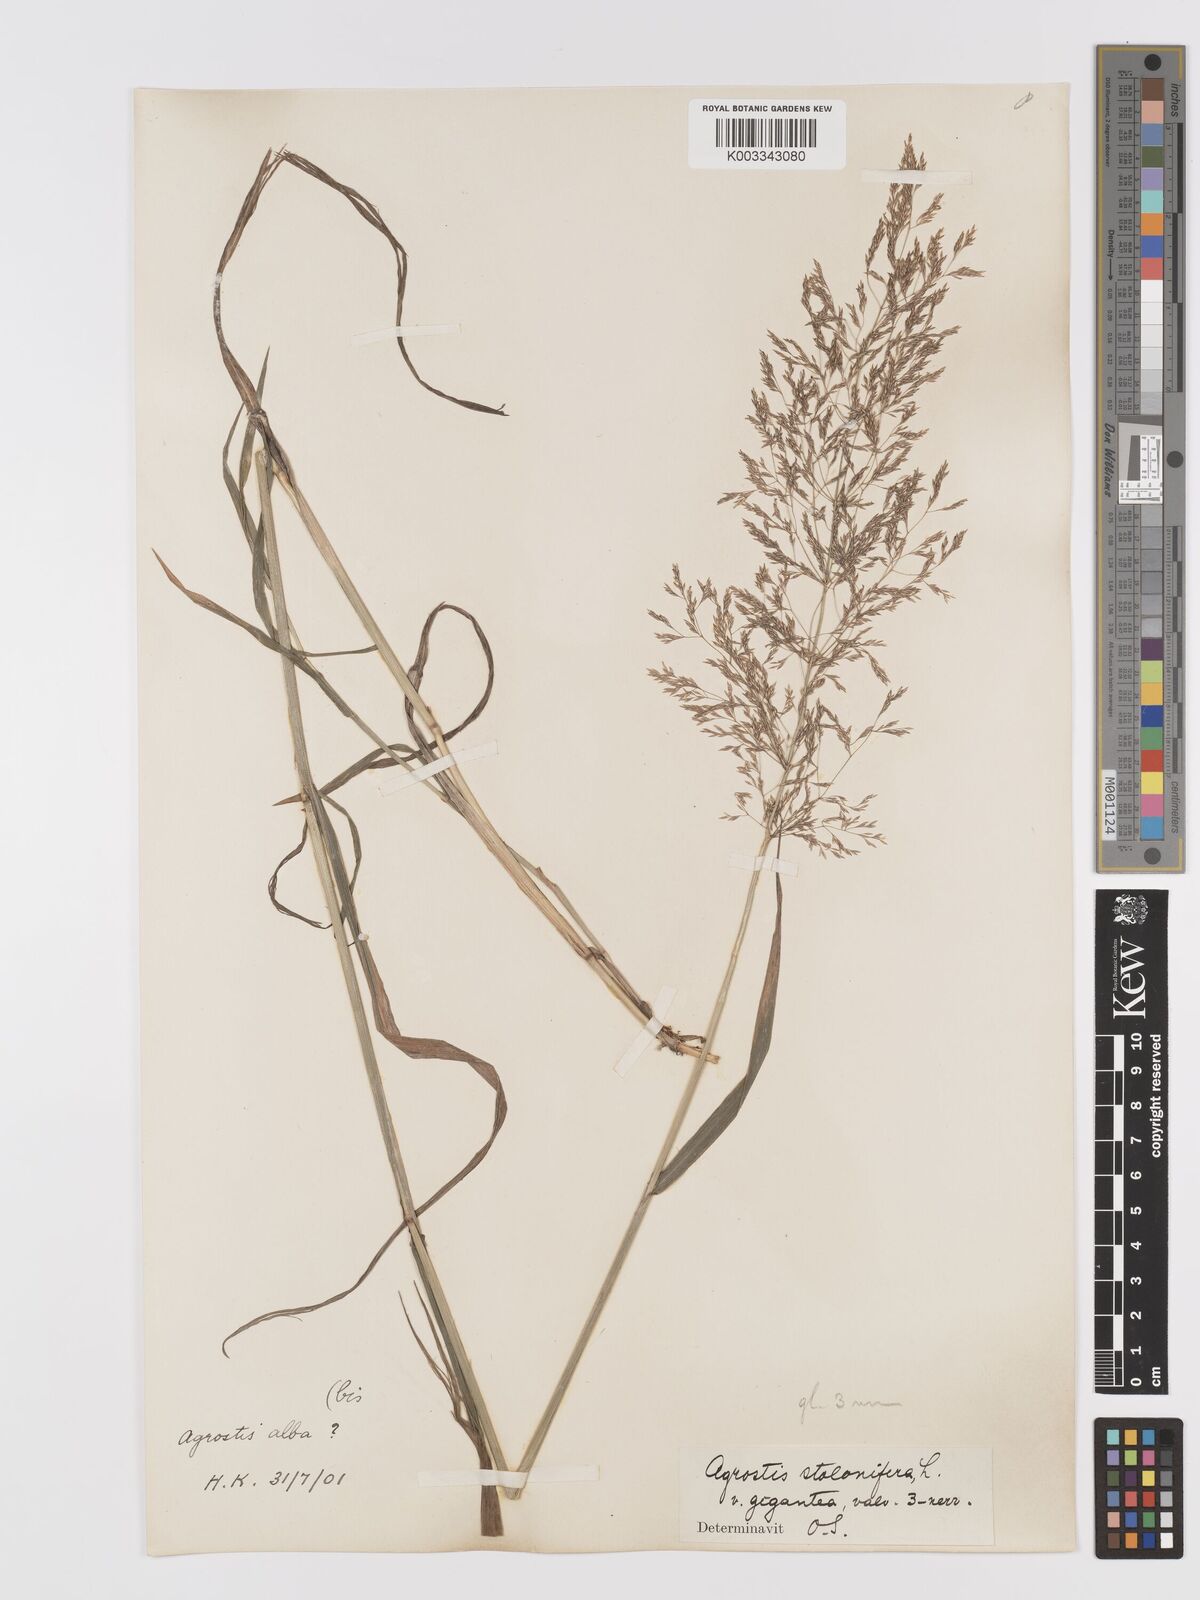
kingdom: Plantae
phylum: Tracheophyta
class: Liliopsida
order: Poales
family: Poaceae
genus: Agrostis
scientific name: Agrostis gigantea
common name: Black bent
